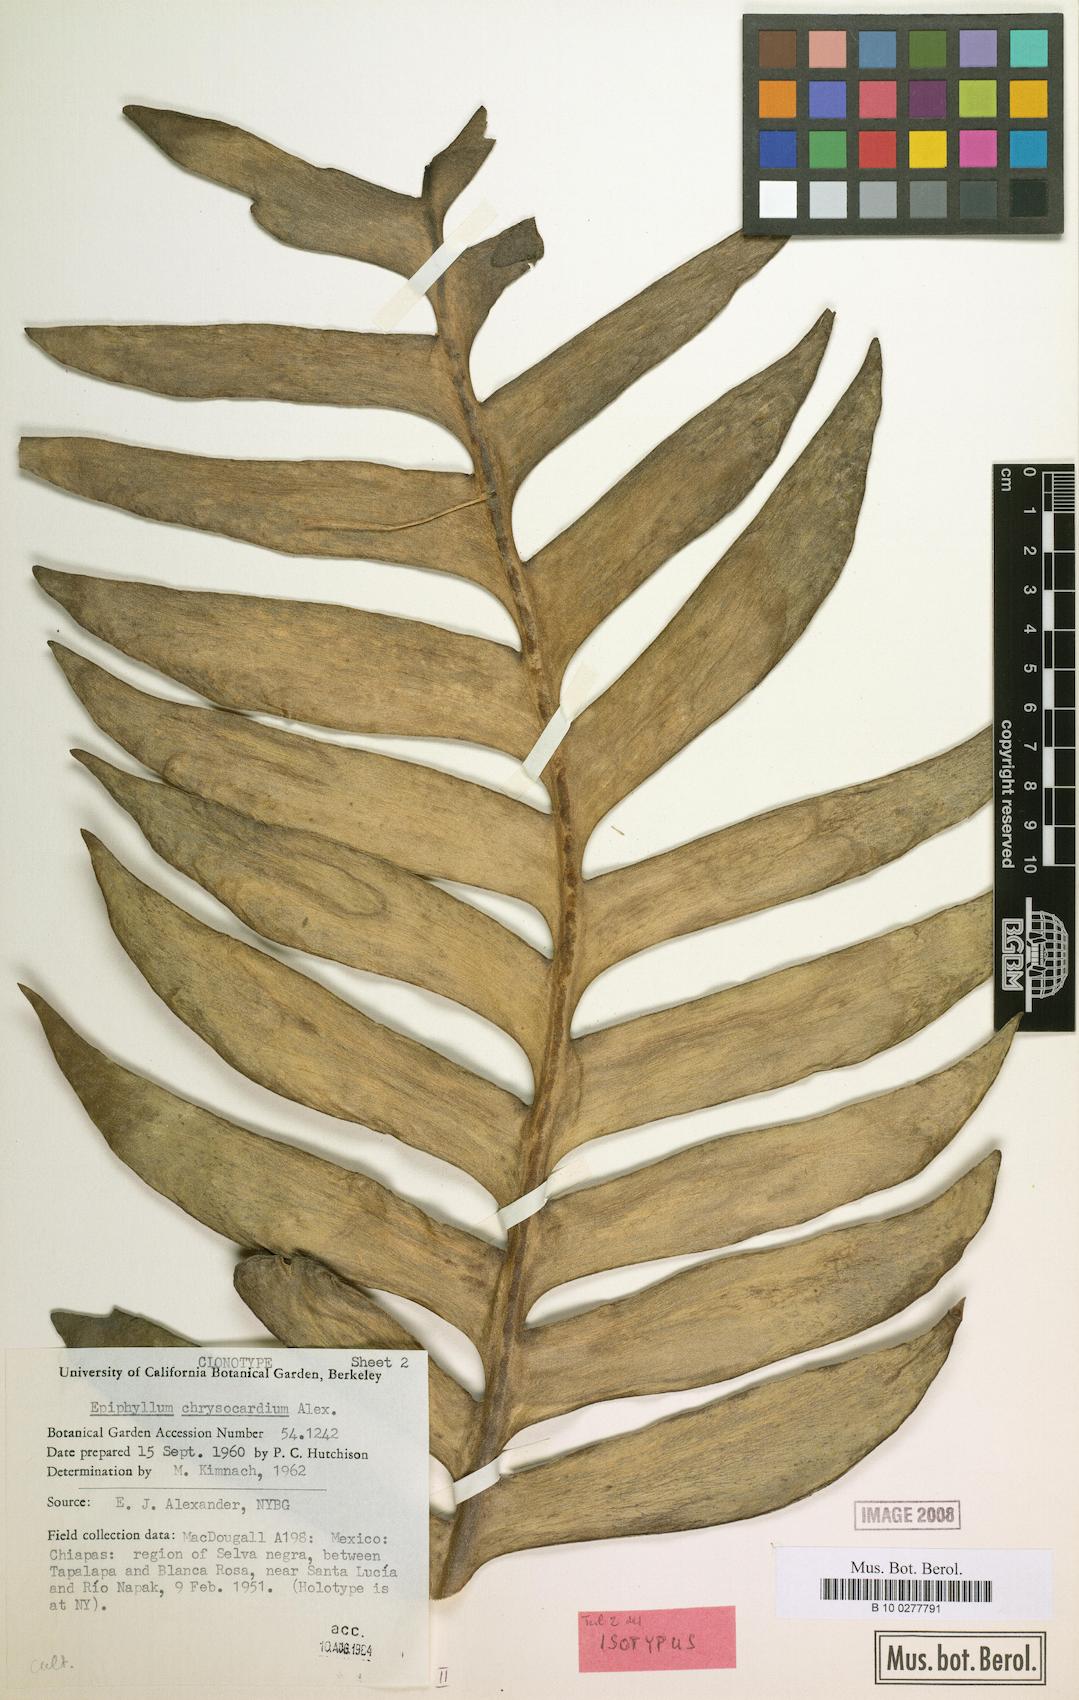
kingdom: Plantae
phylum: Tracheophyta
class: Magnoliopsida
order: Caryophyllales
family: Cactaceae
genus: Epiphyllum
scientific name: Epiphyllum chrysocardium
